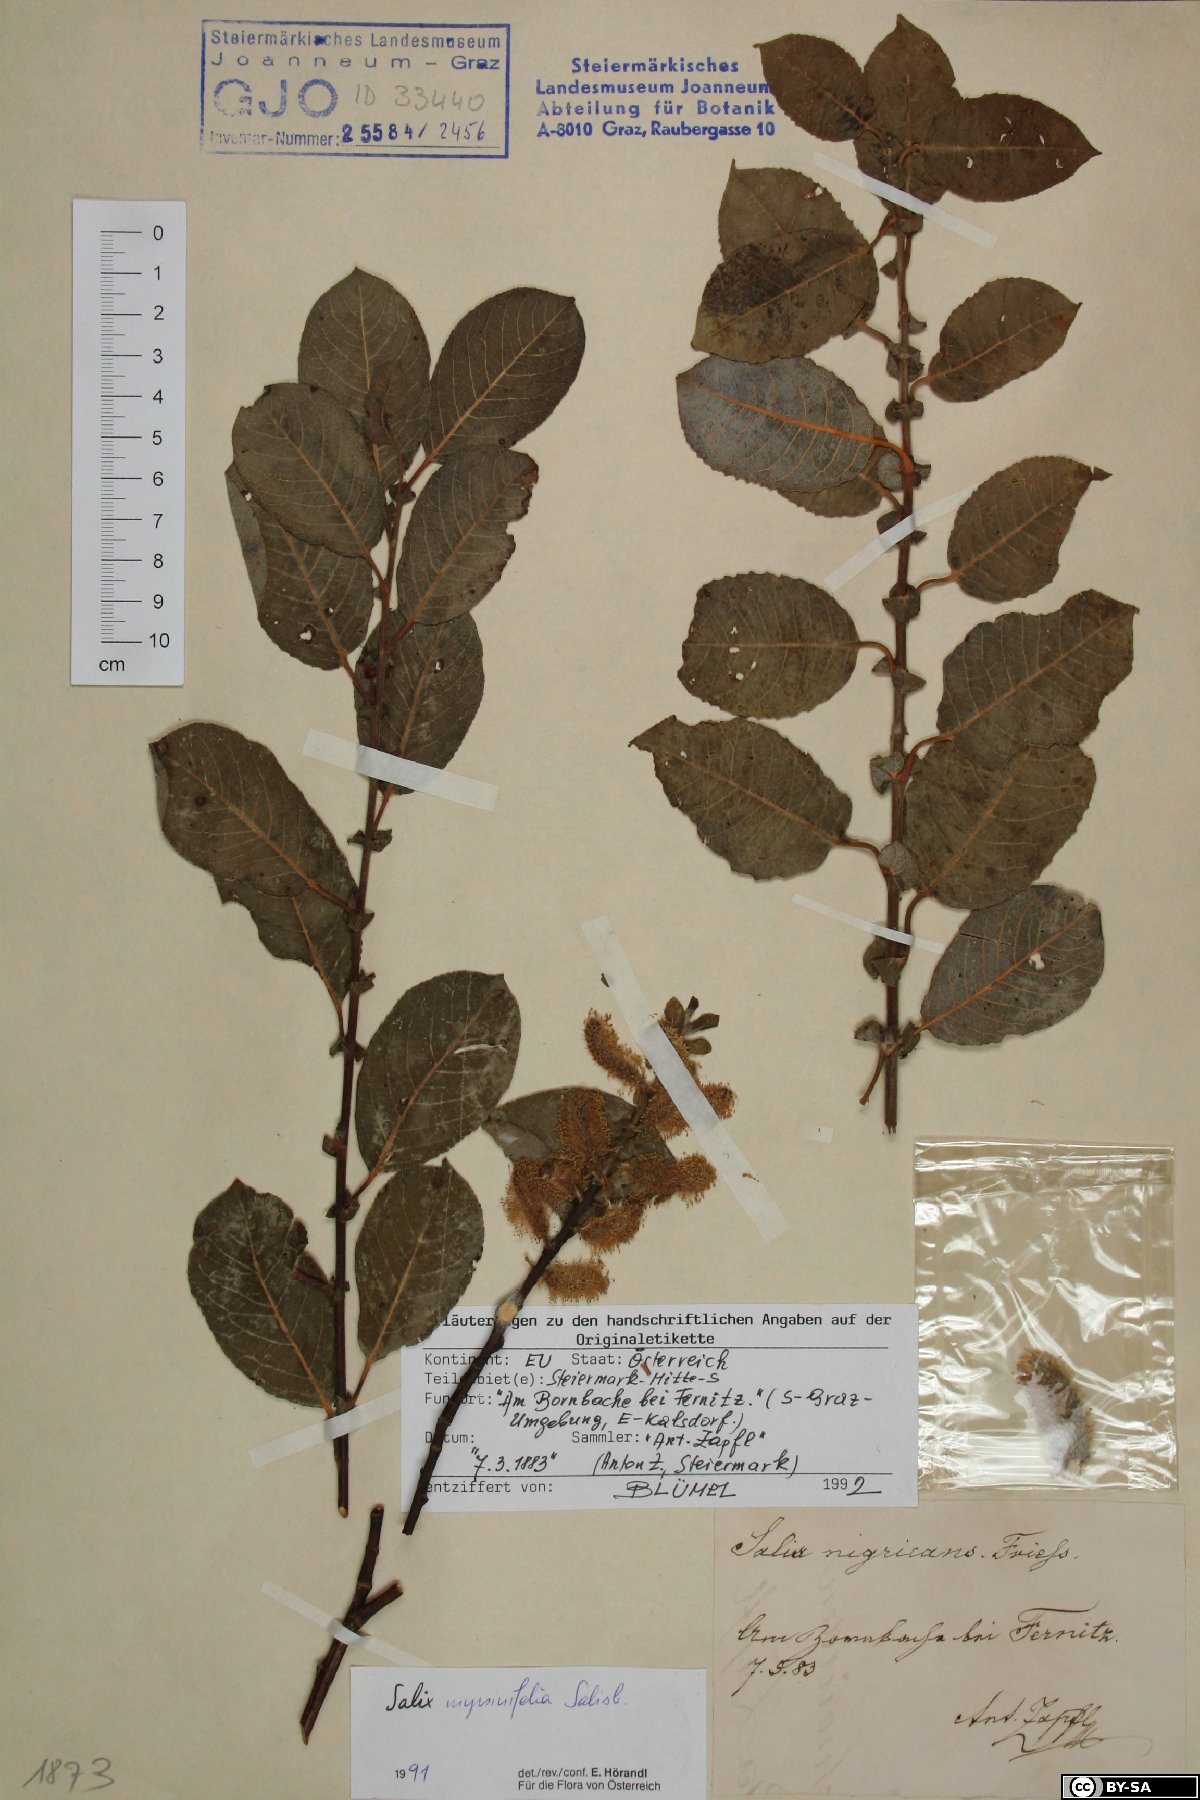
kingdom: Plantae
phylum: Tracheophyta
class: Magnoliopsida
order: Malpighiales
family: Salicaceae
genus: Salix
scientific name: Salix myrsinifolia
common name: Dark-leaved willow
